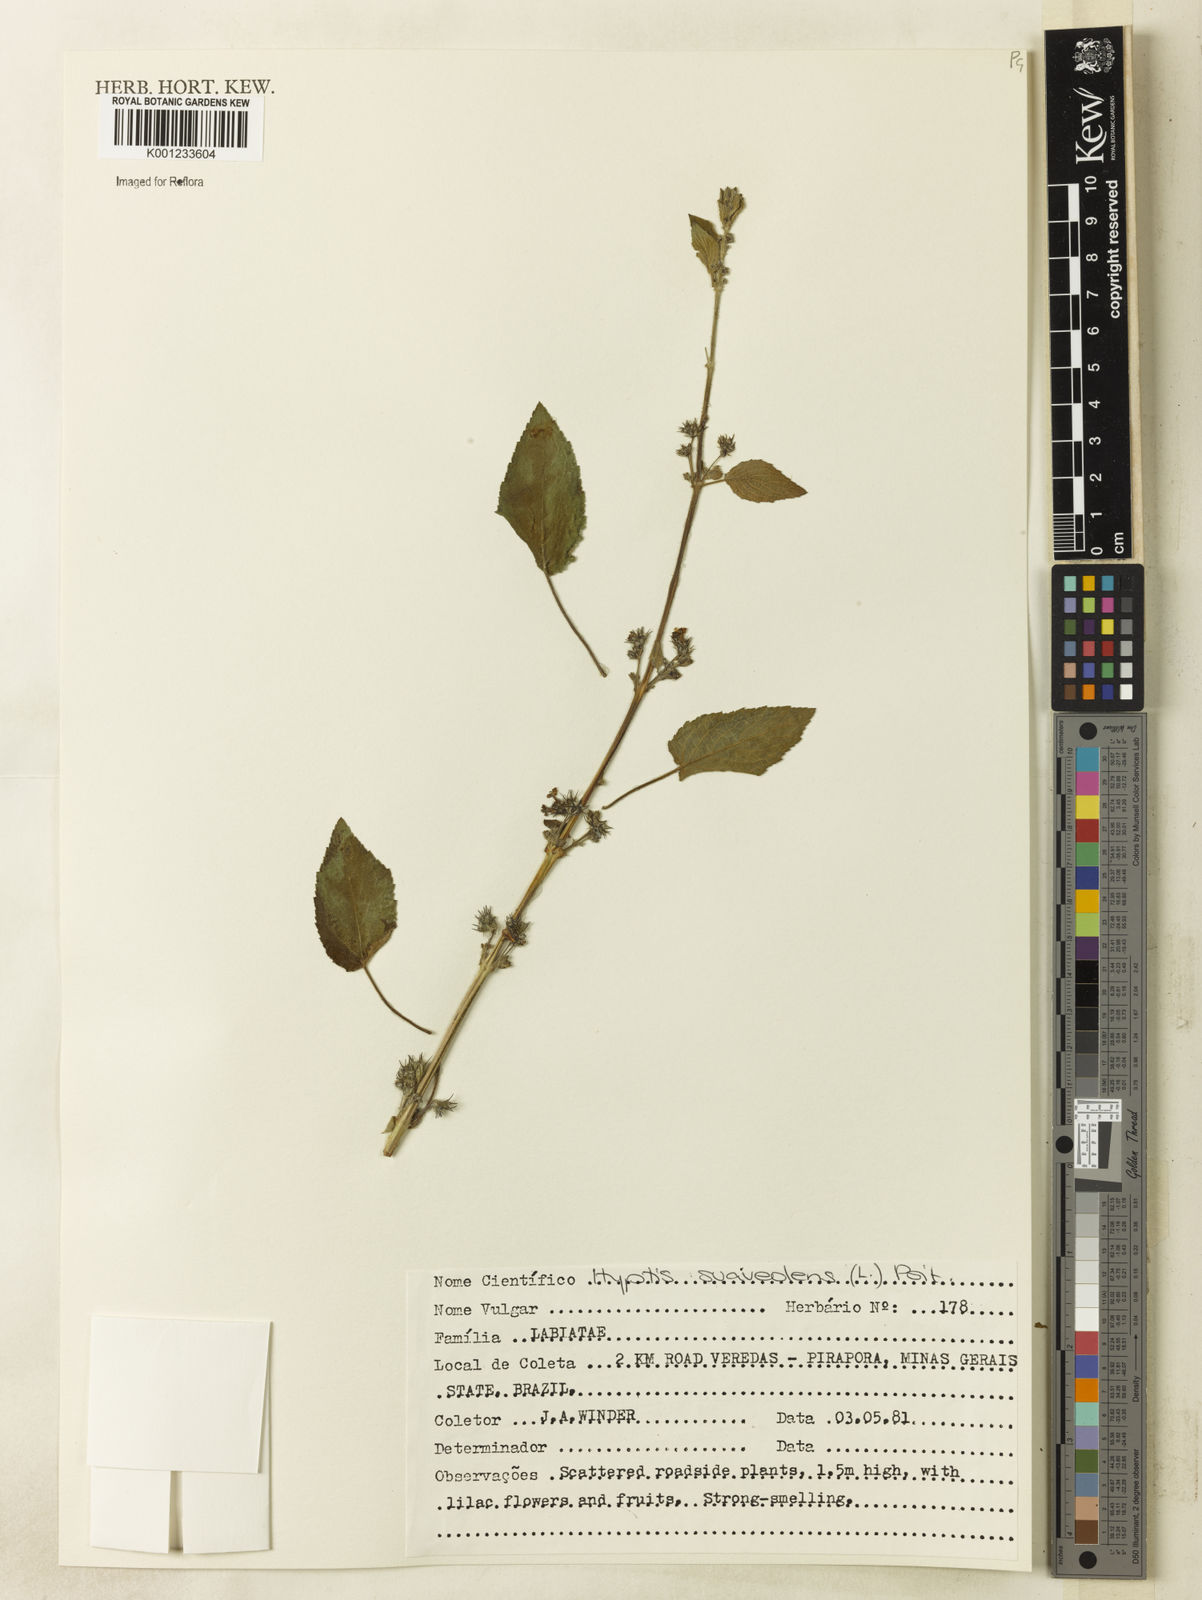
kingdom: Plantae
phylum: Tracheophyta
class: Magnoliopsida
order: Lamiales
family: Lamiaceae
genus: Mesosphaerum
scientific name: Mesosphaerum suaveolens
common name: Pignut
